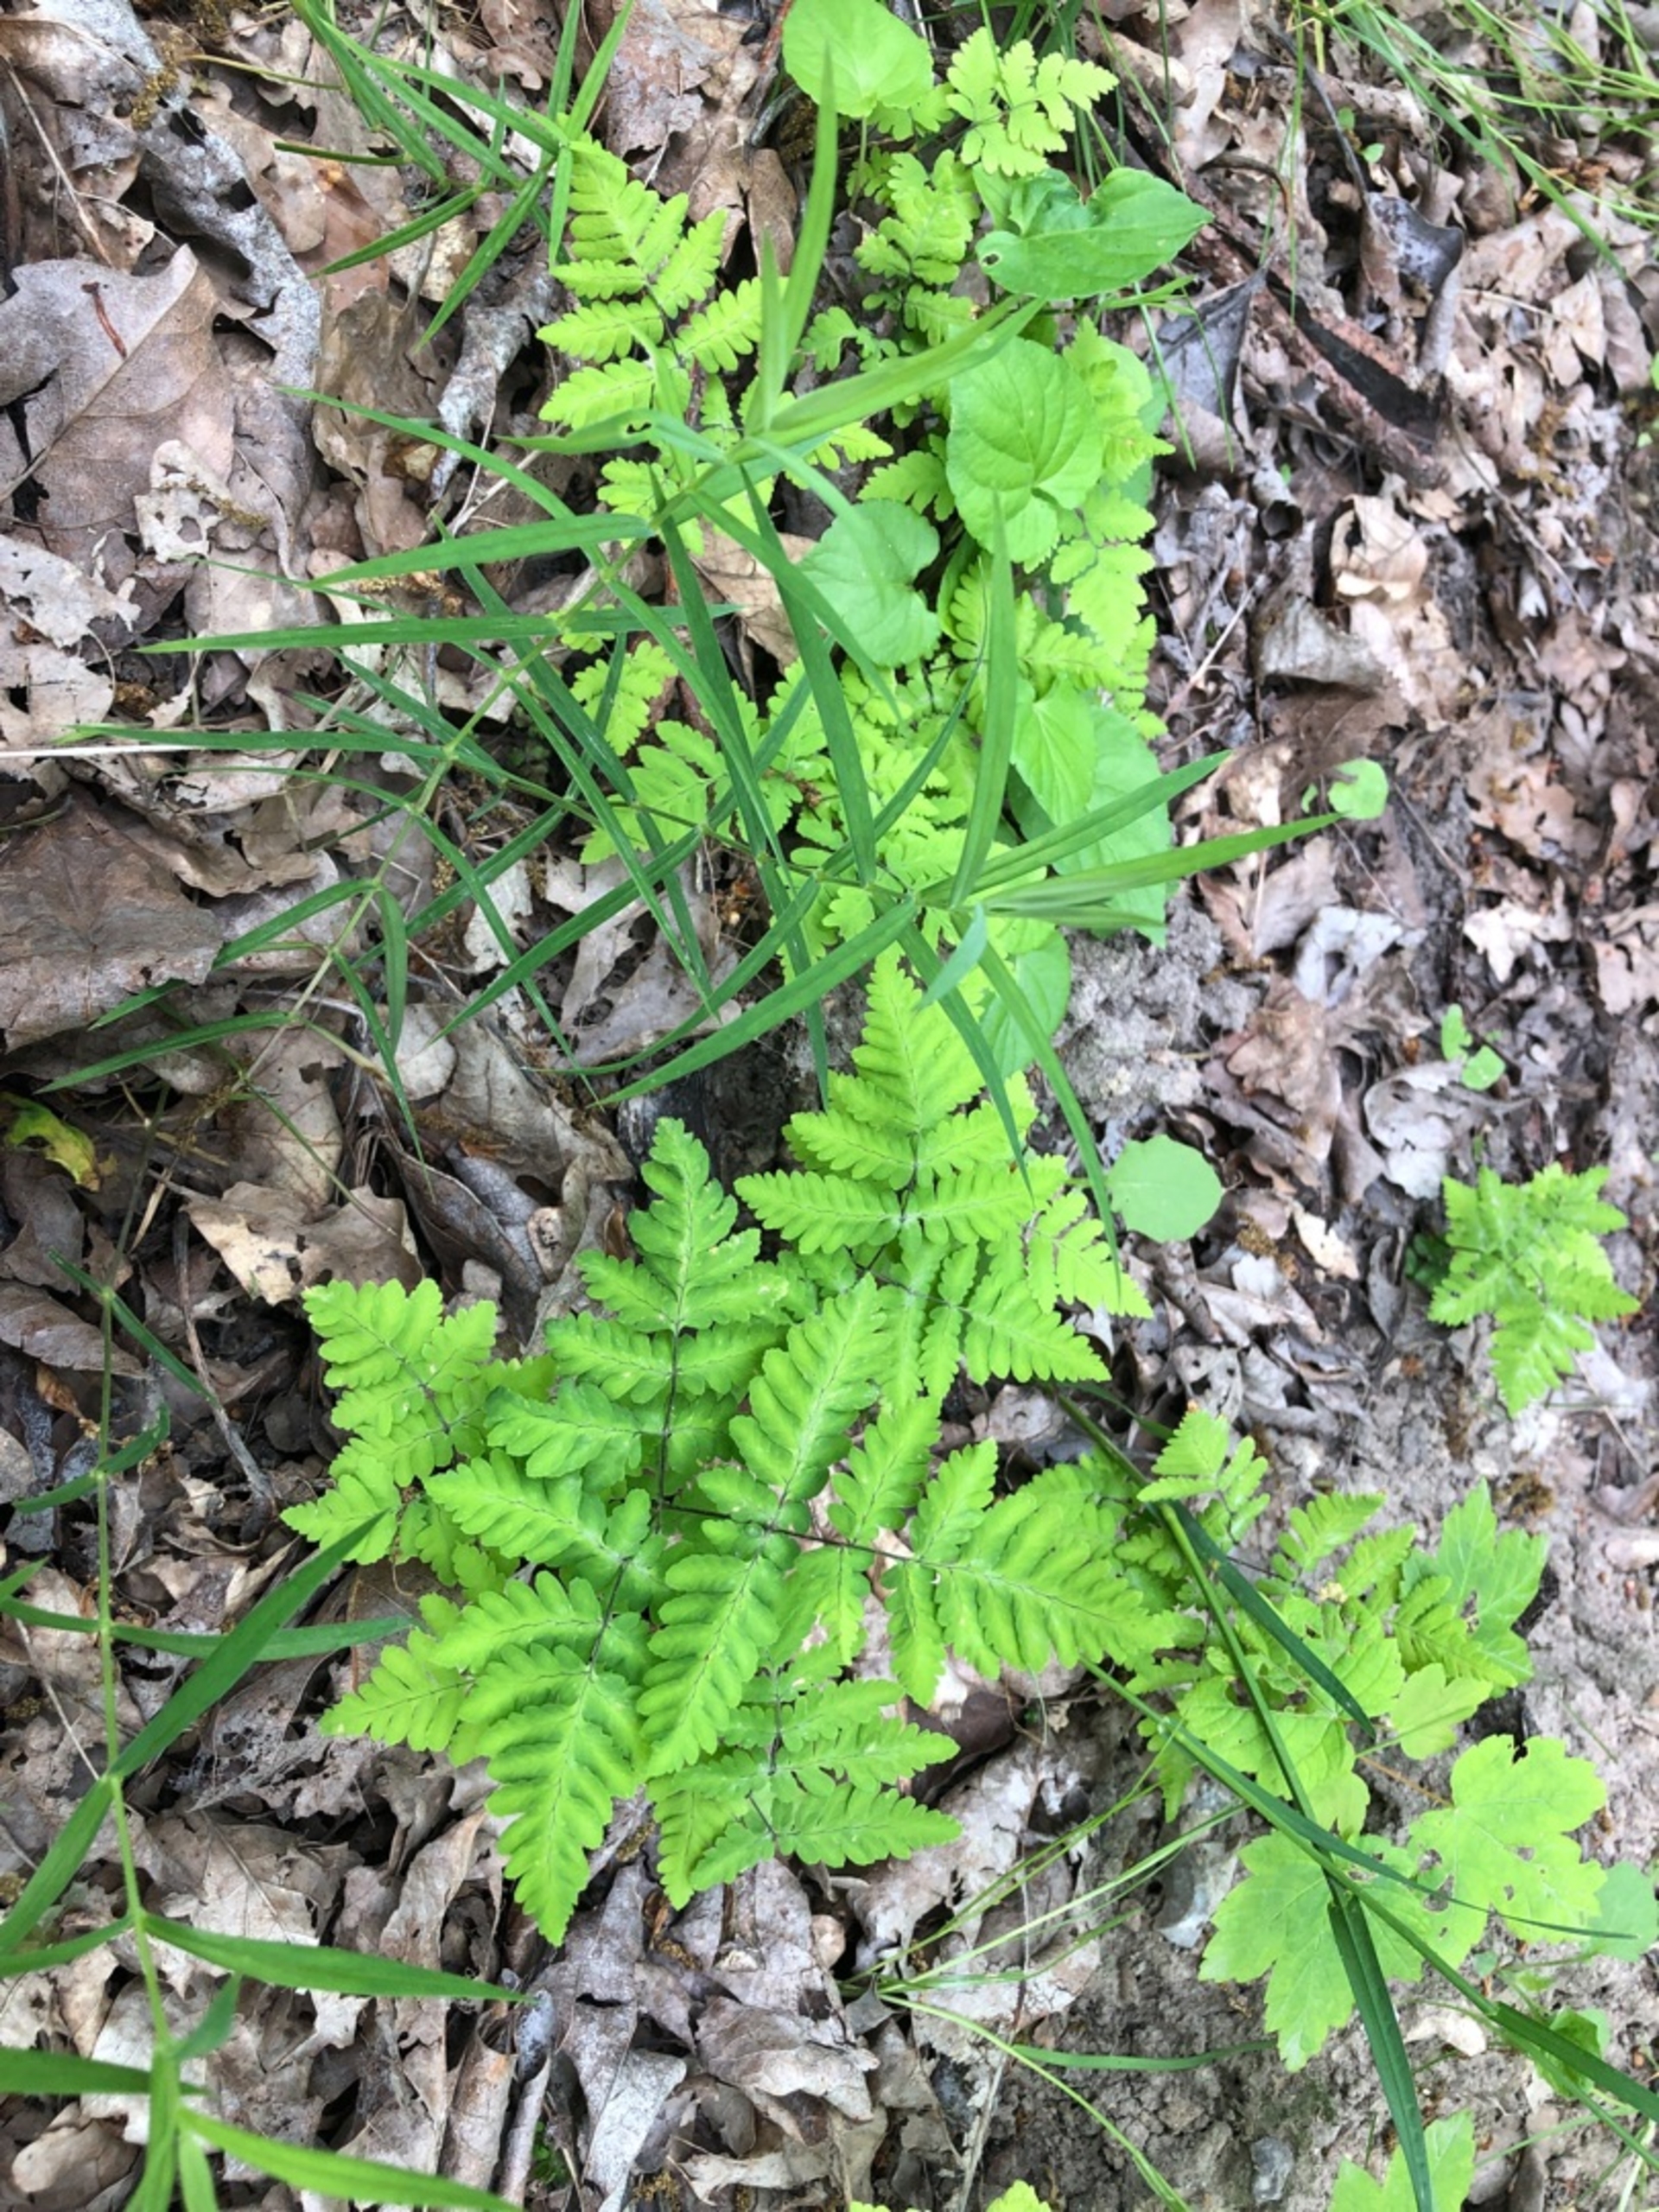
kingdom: Plantae
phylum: Tracheophyta
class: Polypodiopsida
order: Polypodiales
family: Cystopteridaceae
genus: Gymnocarpium
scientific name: Gymnocarpium dryopteris
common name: Tredelt egebregne
